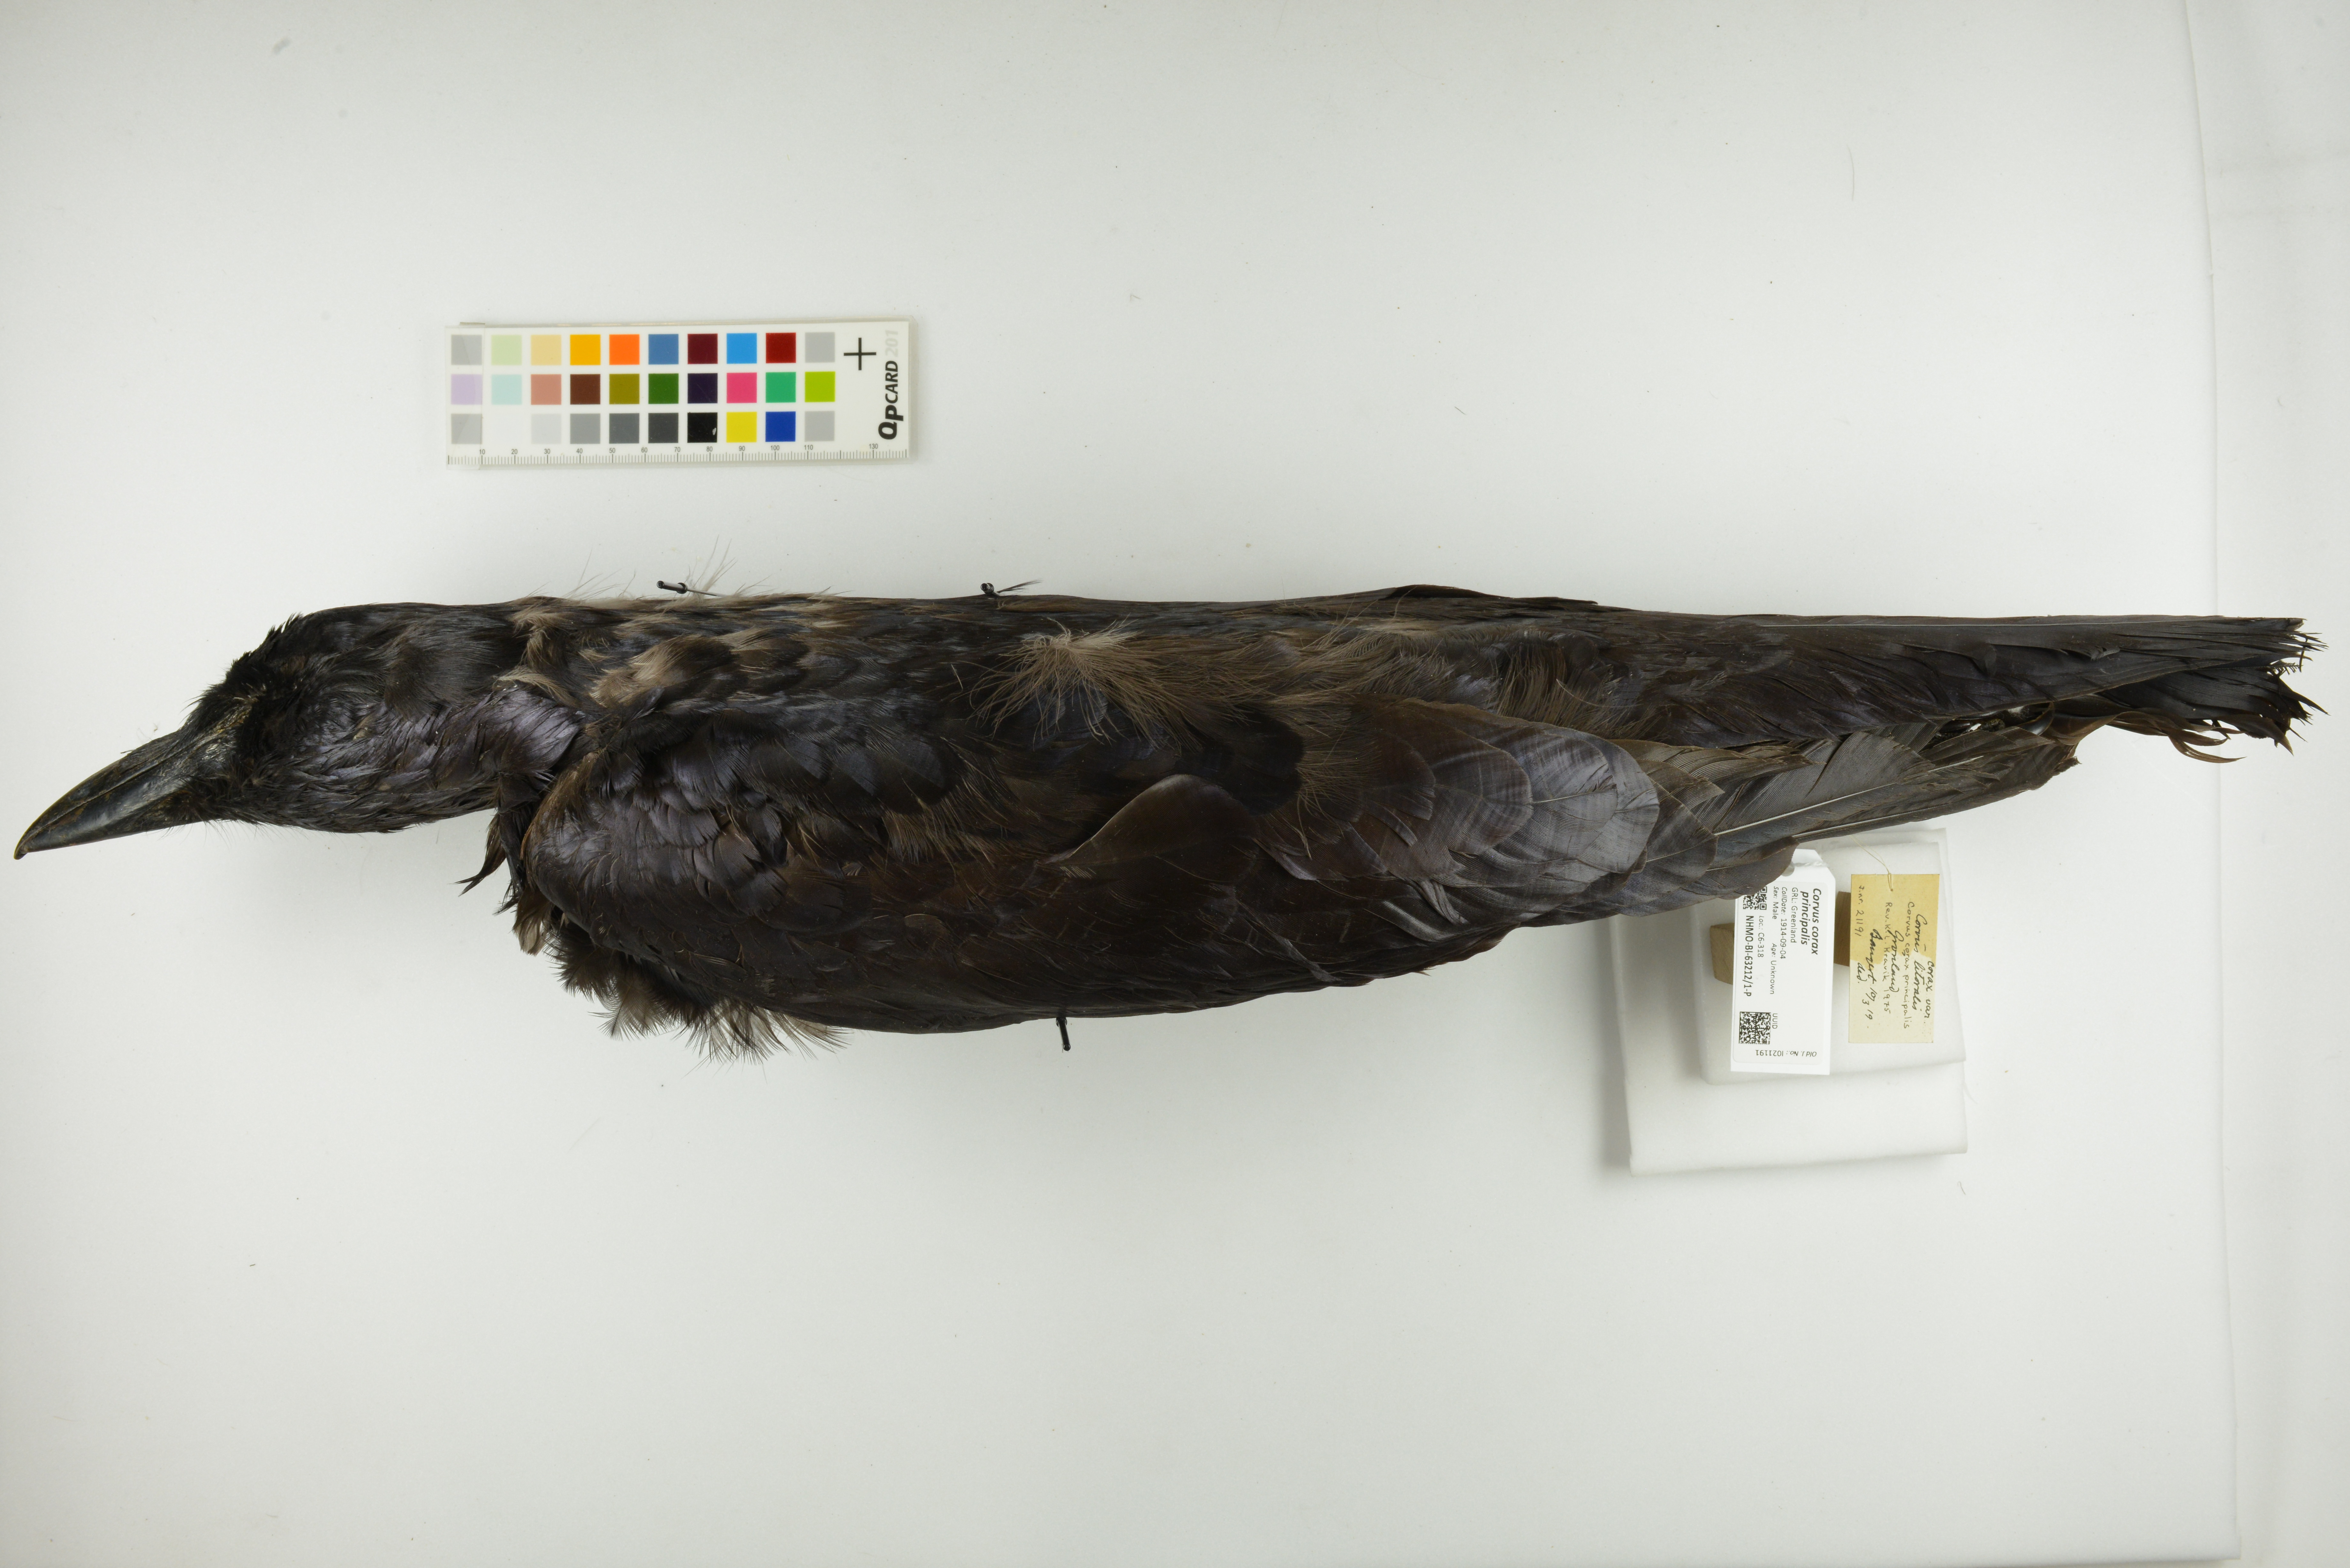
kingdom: Animalia
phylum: Chordata
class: Aves
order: Passeriformes
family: Corvidae
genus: Corvus
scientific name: Corvus corax
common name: Common raven
